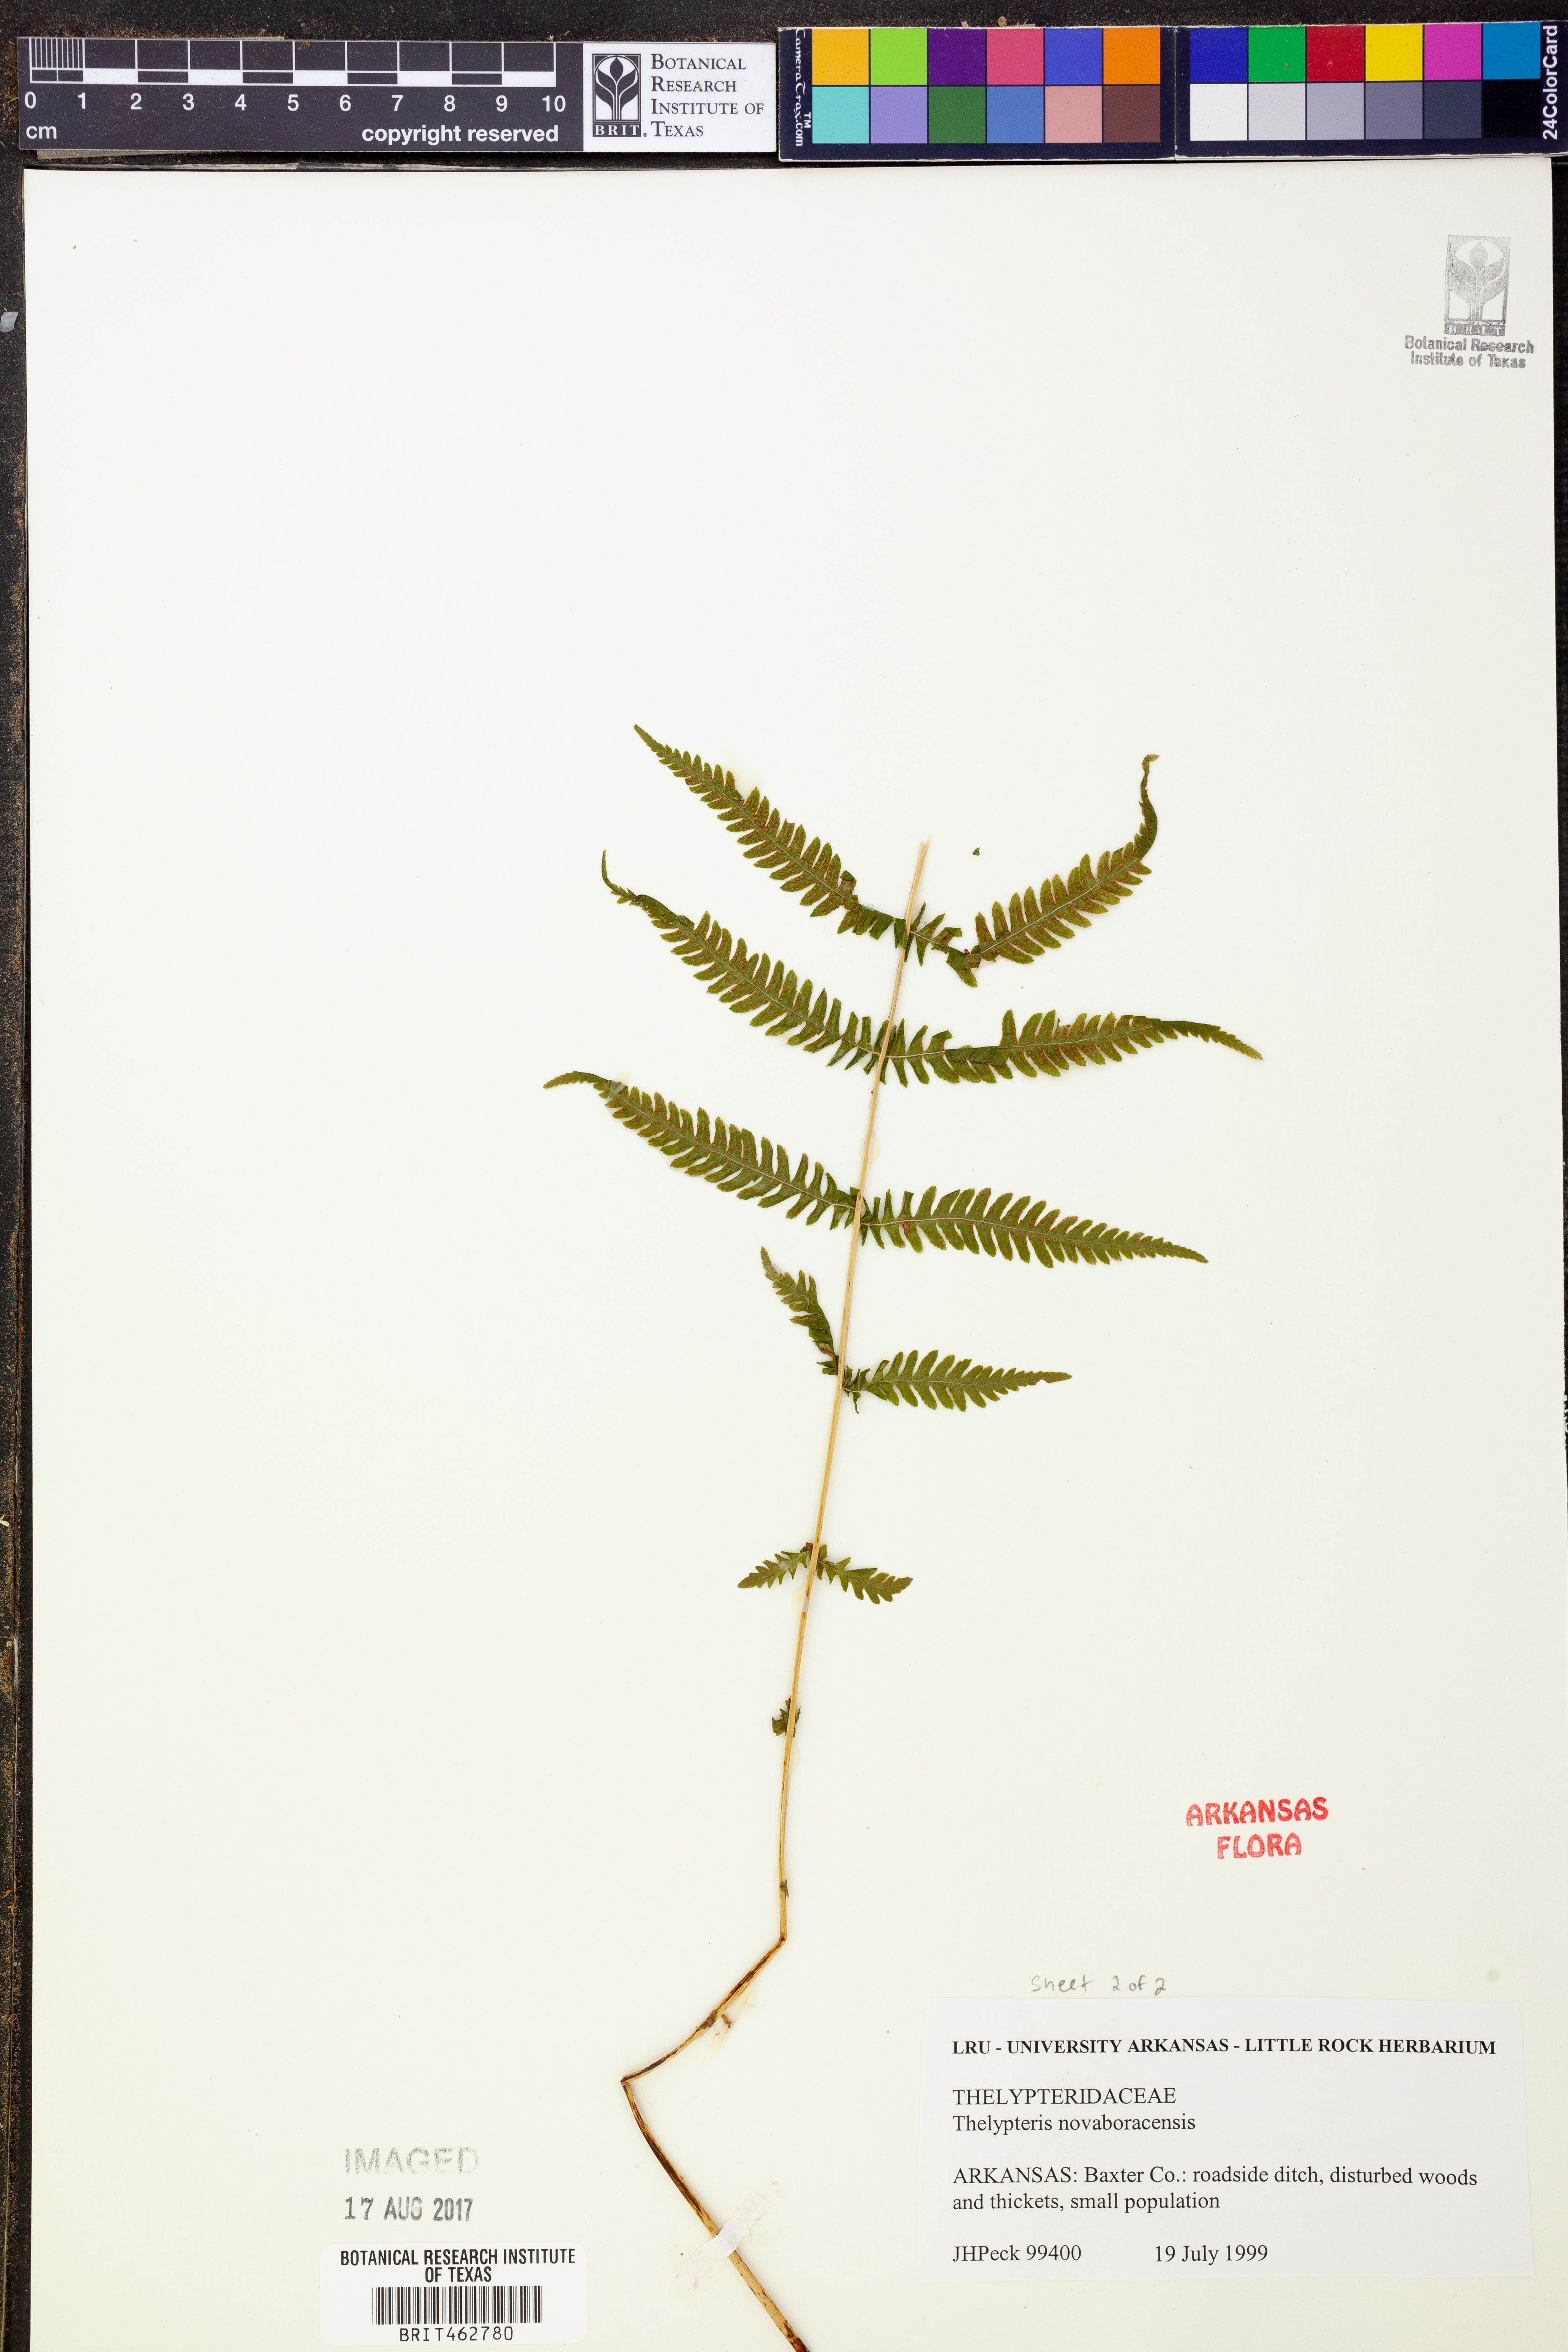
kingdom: Plantae
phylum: Tracheophyta
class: Polypodiopsida
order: Polypodiales
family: Thelypteridaceae
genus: Amauropelta
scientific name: Amauropelta noveboracensis
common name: New york fern
